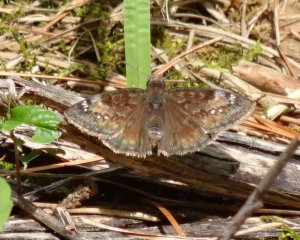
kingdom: Animalia
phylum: Arthropoda
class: Insecta
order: Lepidoptera
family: Hesperiidae
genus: Gesta
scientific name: Gesta
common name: Wild Indigo Duskywing
